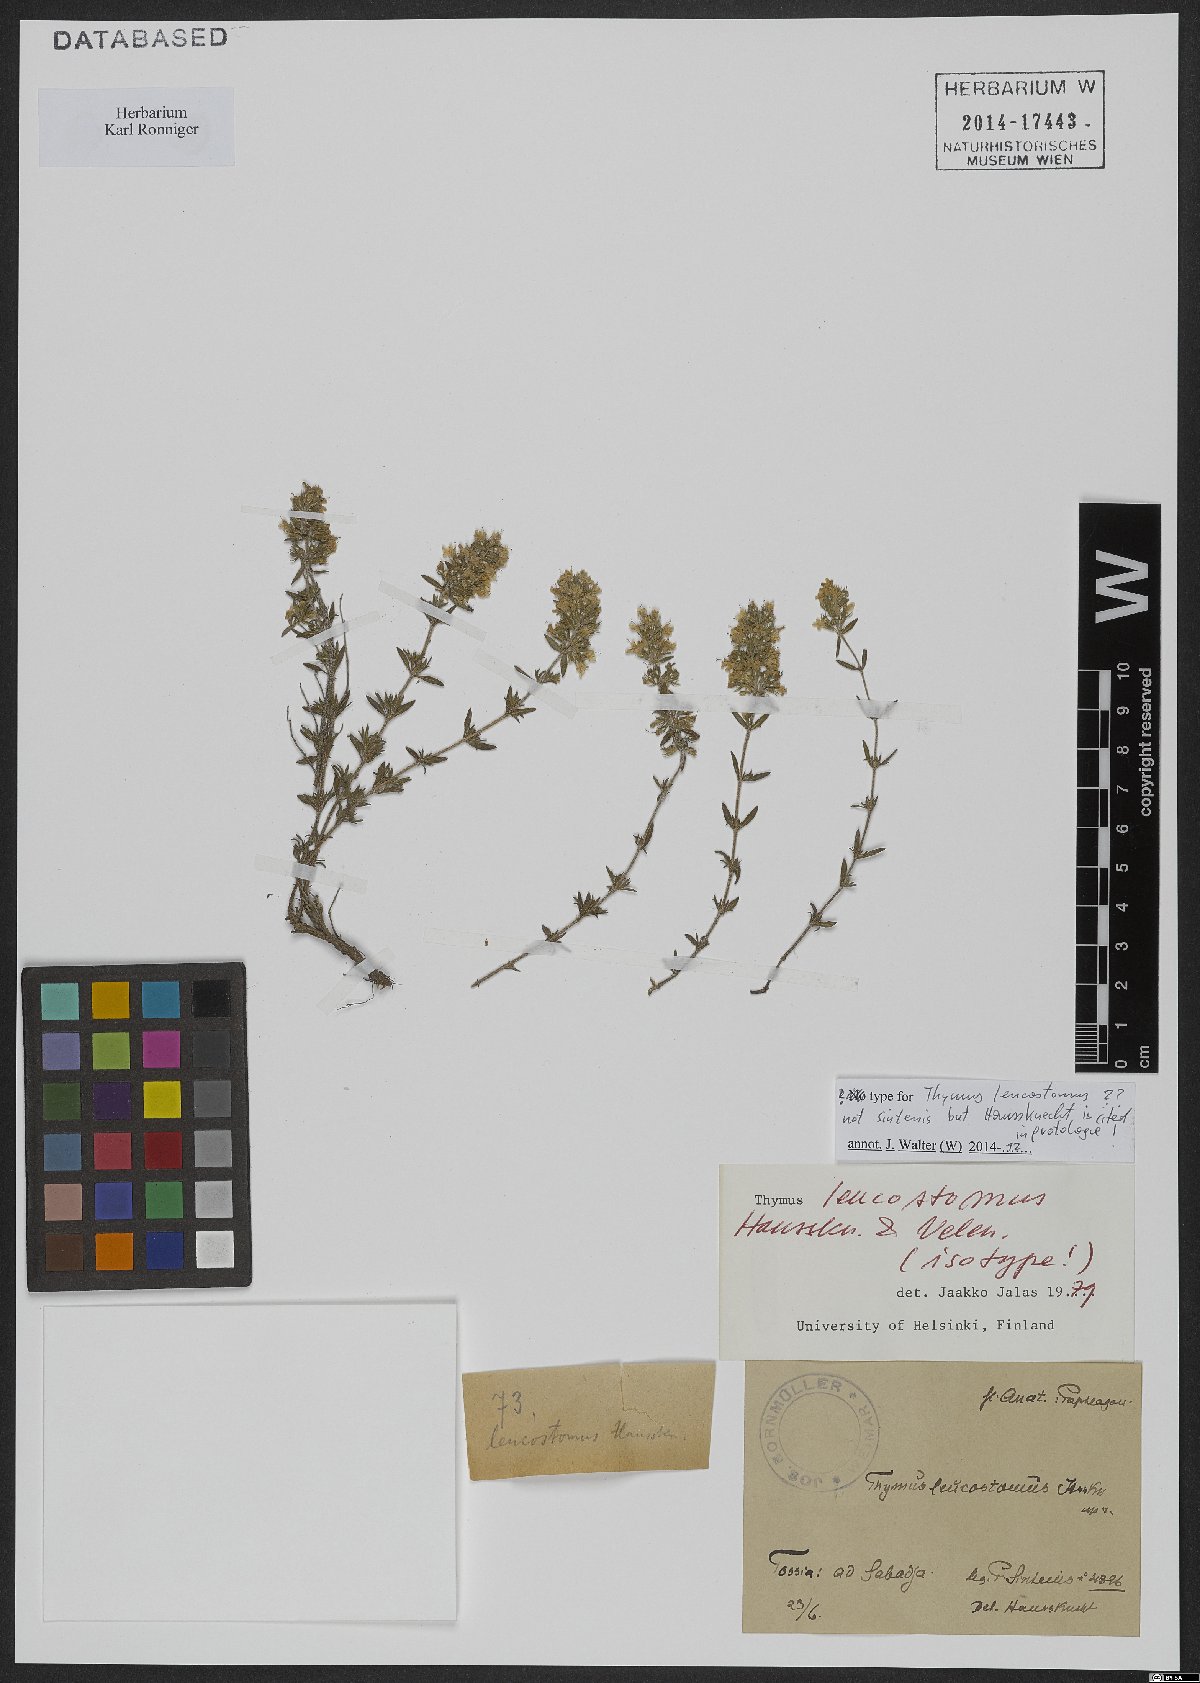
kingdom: Plantae
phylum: Tracheophyta
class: Magnoliopsida
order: Lamiales
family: Lamiaceae
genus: Thymus
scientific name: Thymus leucostomus
